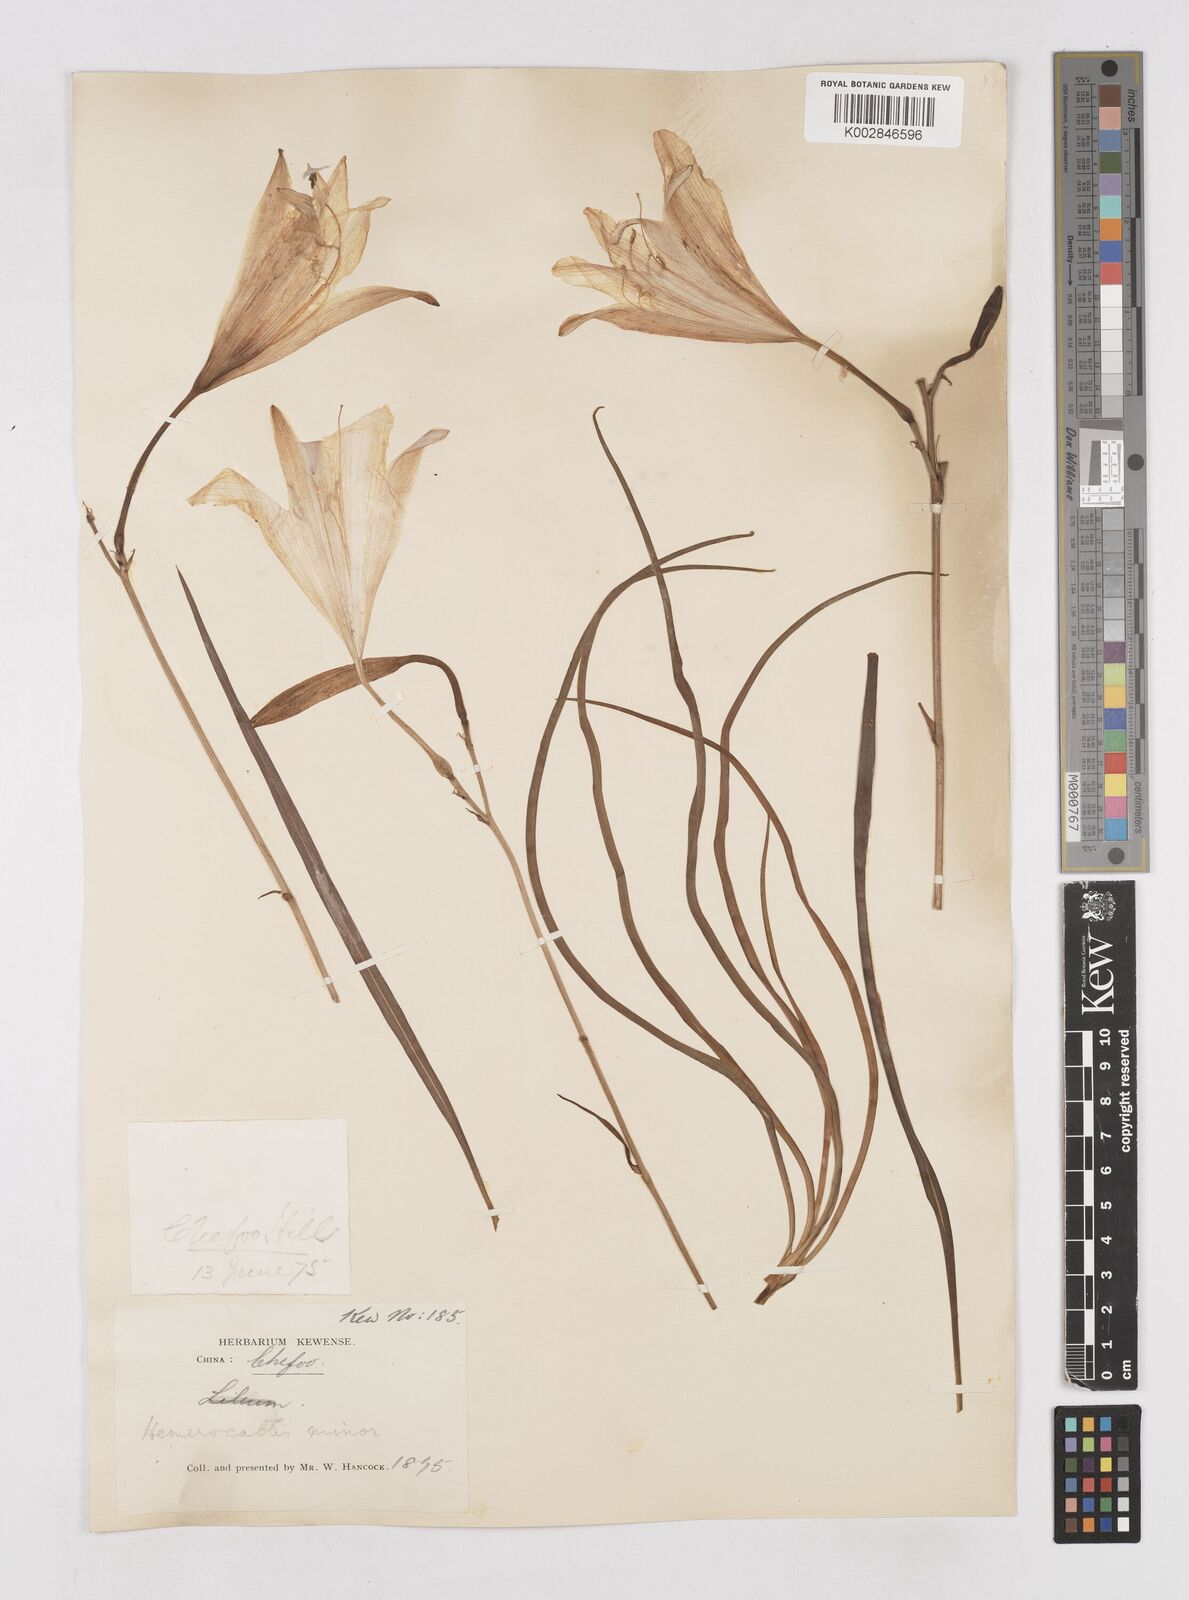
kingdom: Plantae
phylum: Tracheophyta
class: Liliopsida
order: Asparagales
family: Asphodelaceae
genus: Hemerocallis
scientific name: Hemerocallis minor
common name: Small daylily
